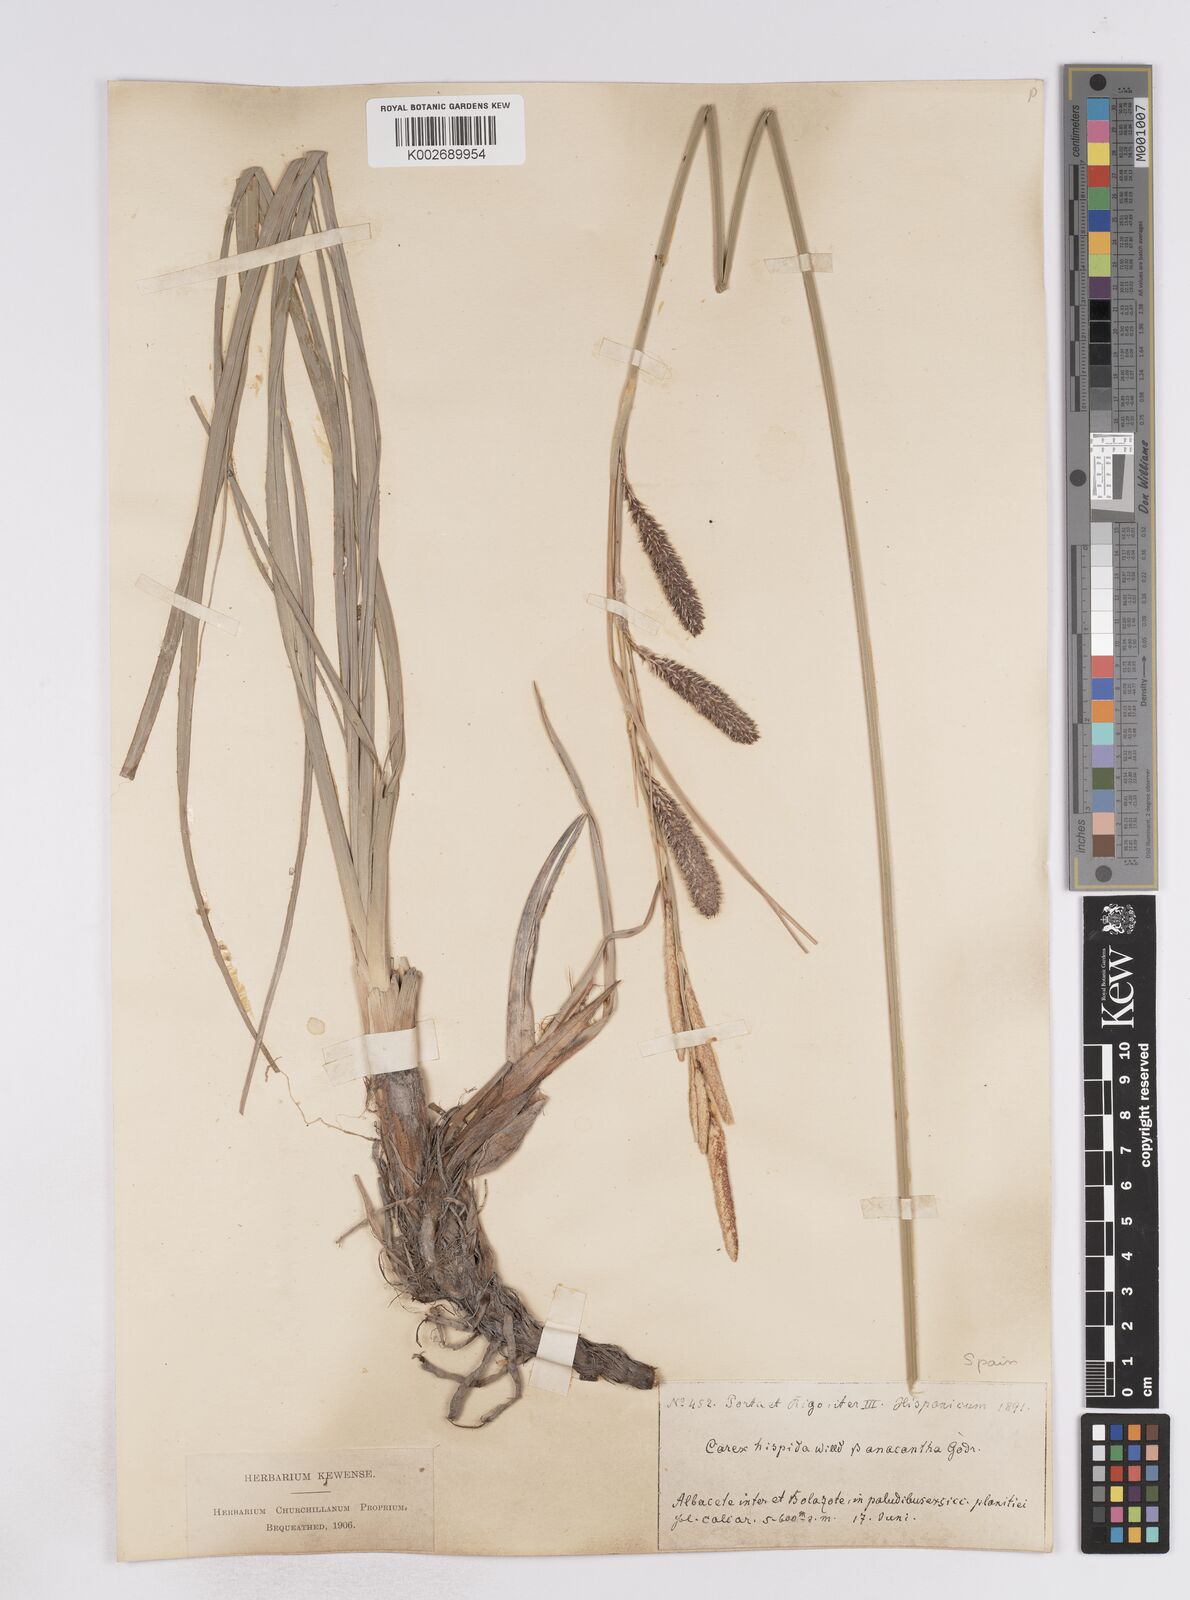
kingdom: Plantae
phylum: Tracheophyta
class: Liliopsida
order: Poales
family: Cyperaceae
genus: Carex
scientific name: Carex hispida
